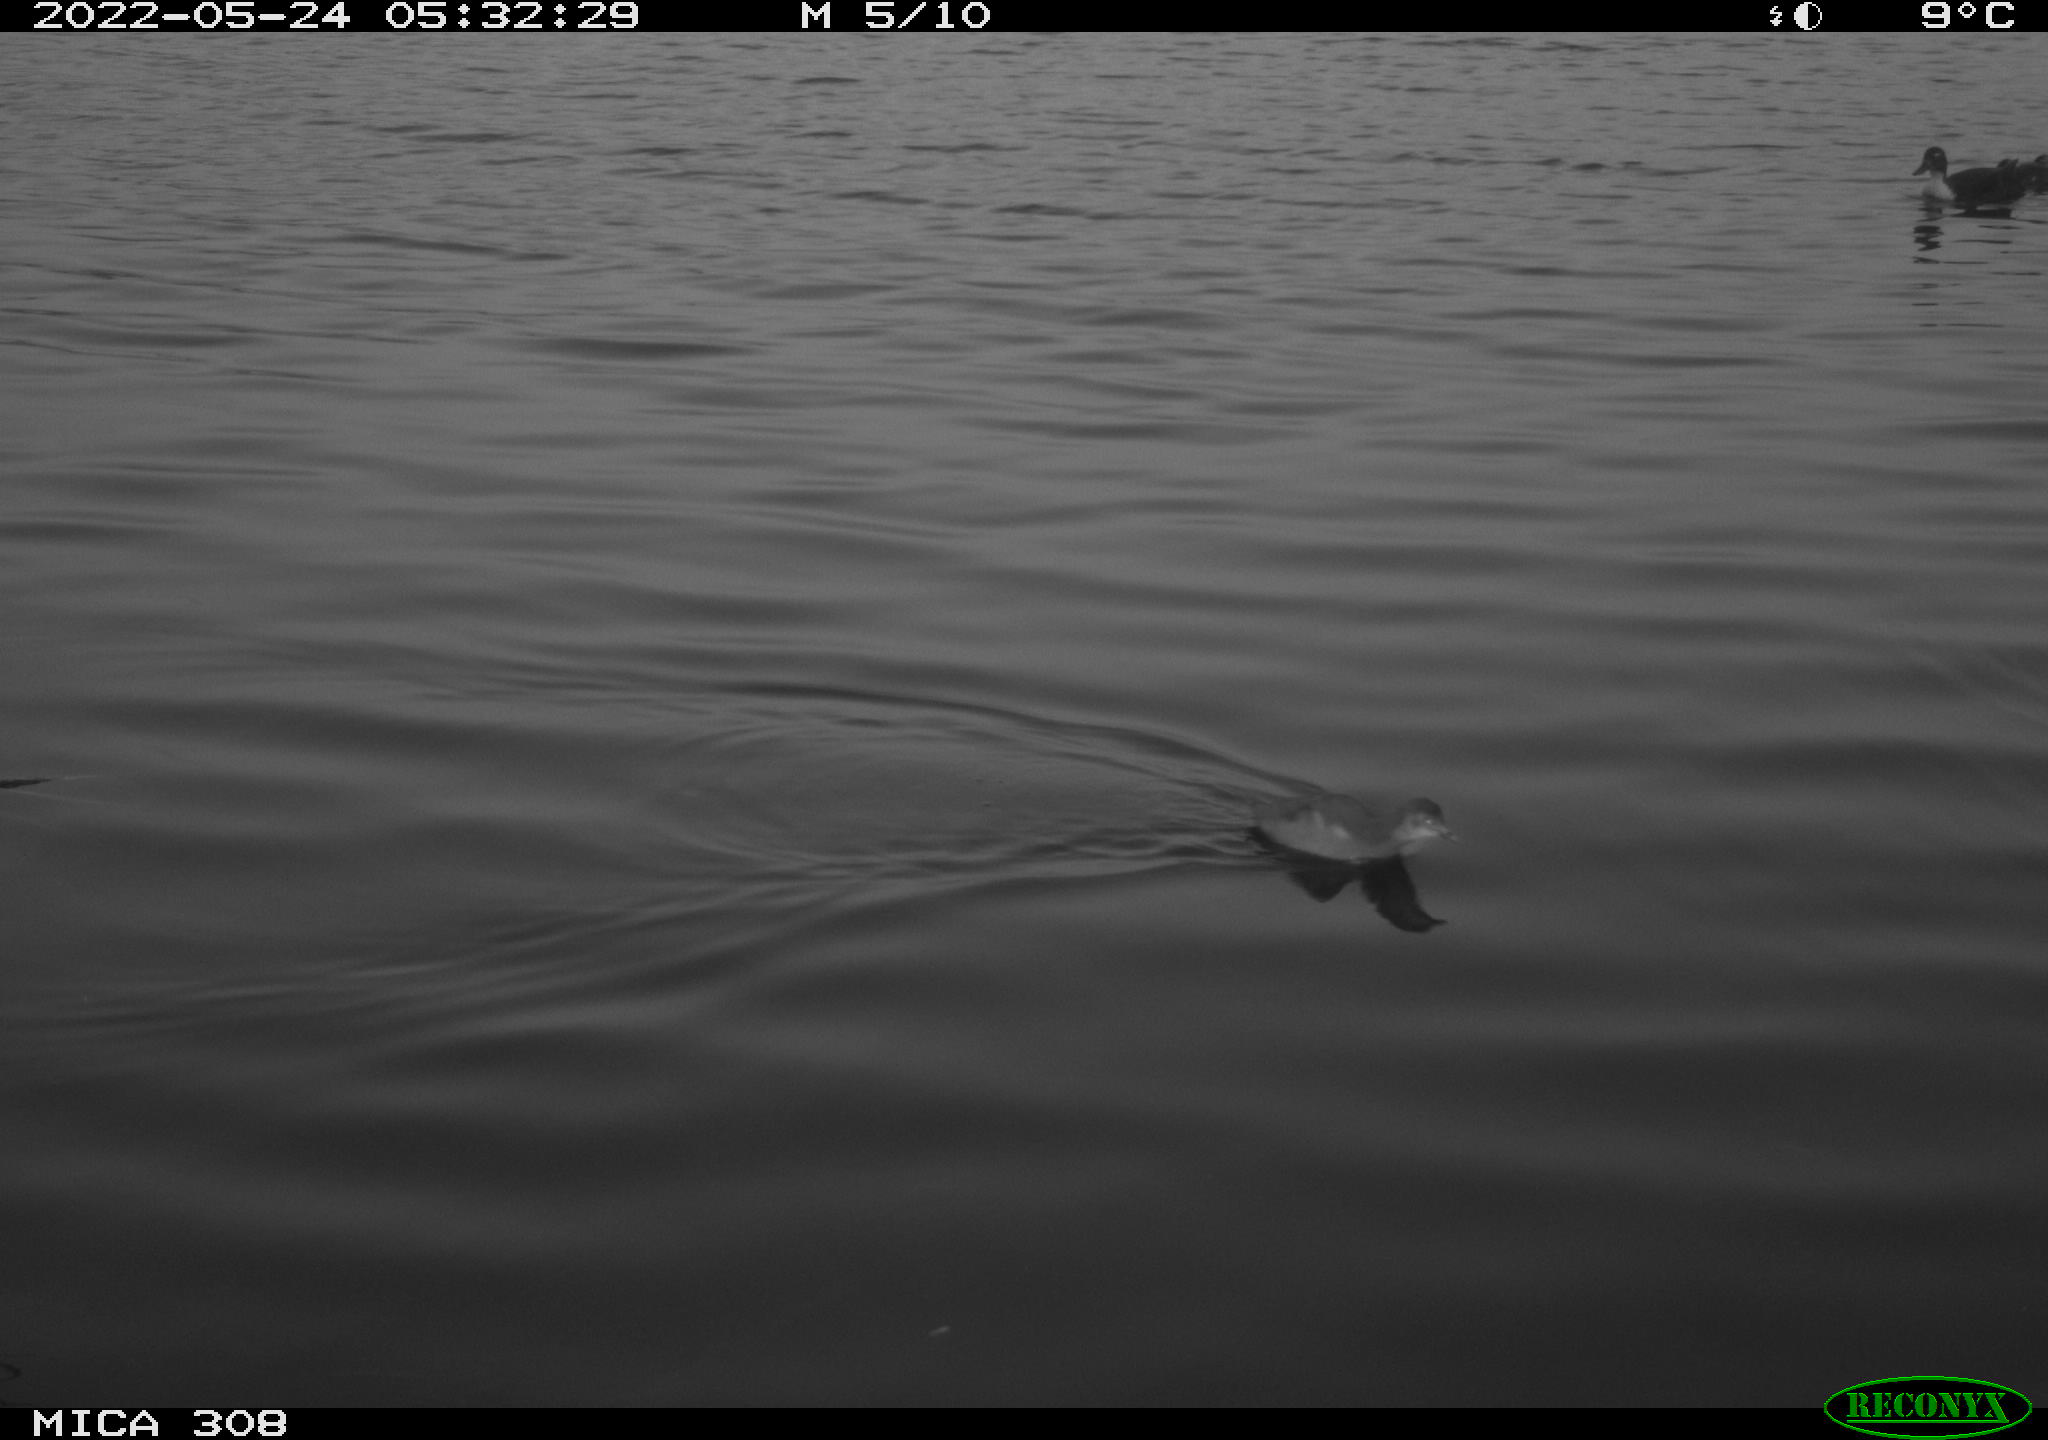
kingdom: Animalia
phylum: Chordata
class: Aves
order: Anseriformes
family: Anatidae
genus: Mareca
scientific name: Mareca strepera
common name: Gadwall
